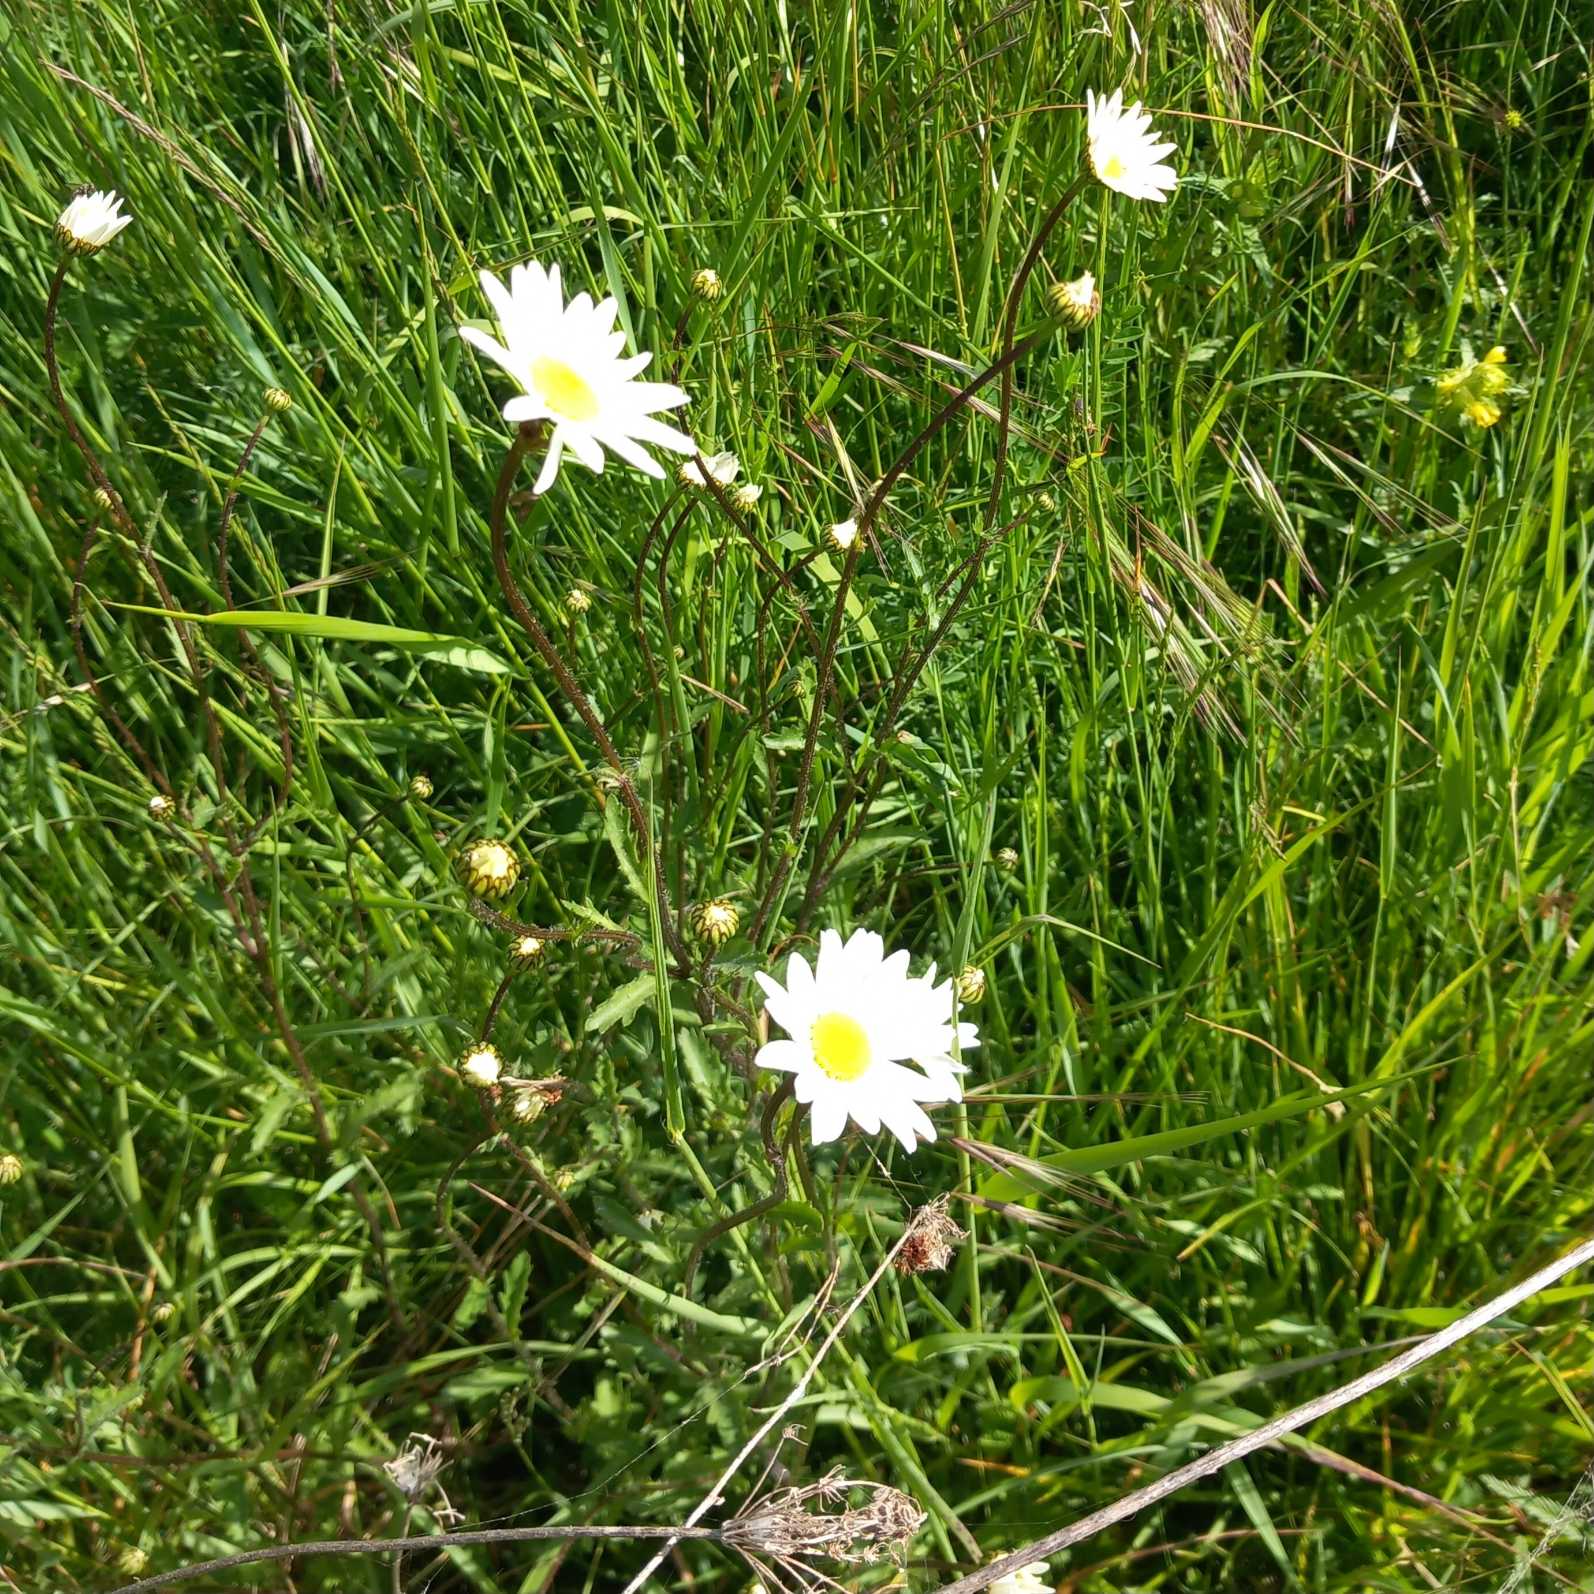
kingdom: Plantae
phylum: Tracheophyta
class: Magnoliopsida
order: Asterales
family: Asteraceae
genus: Leucanthemum
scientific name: Leucanthemum vulgare
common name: Hvid okseøje
